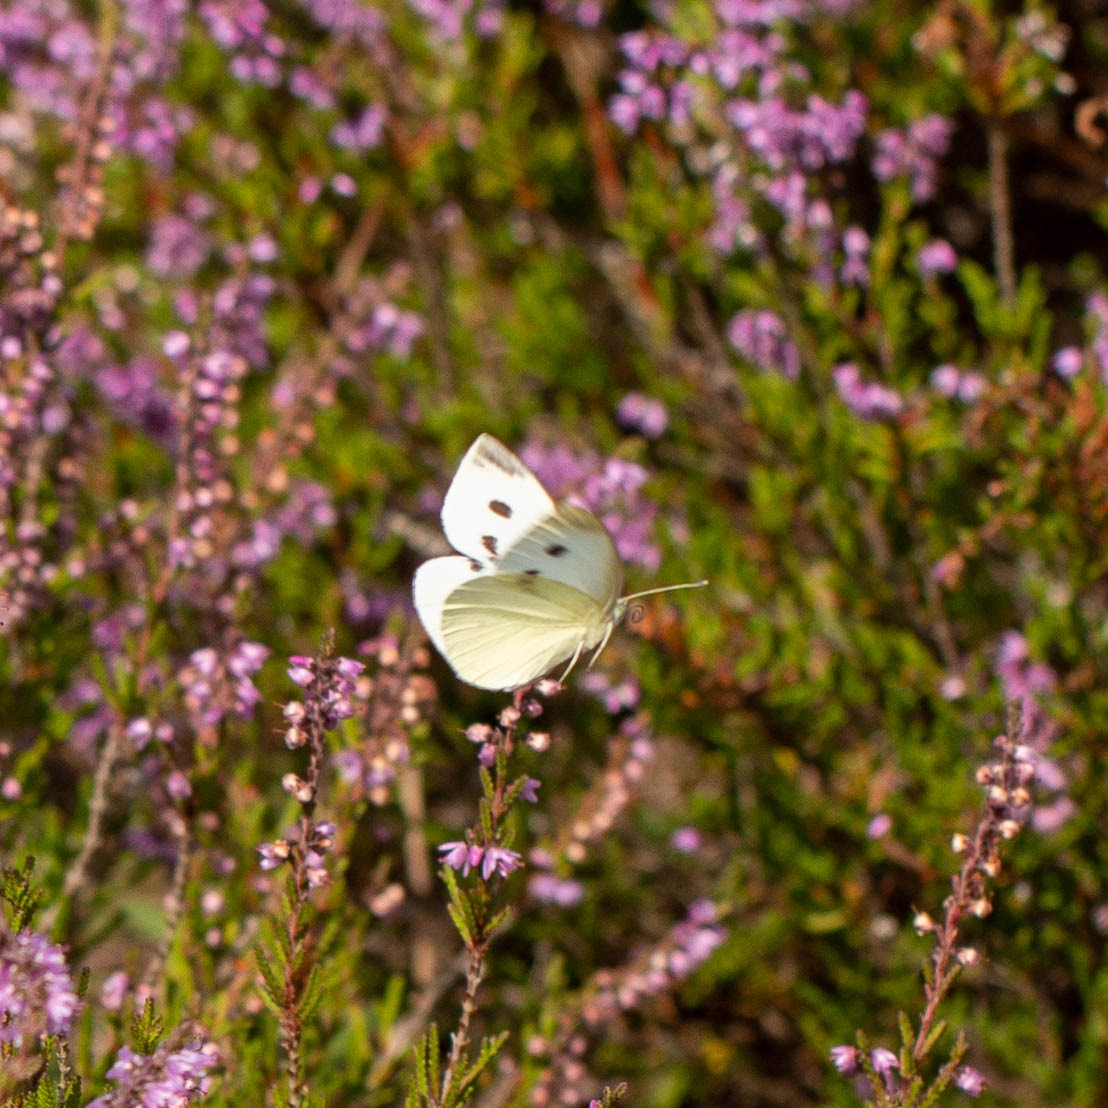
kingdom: Animalia
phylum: Arthropoda
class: Insecta
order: Lepidoptera
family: Pieridae
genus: Pieris
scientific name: Pieris rapae
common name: Lille kålsommerfugl
